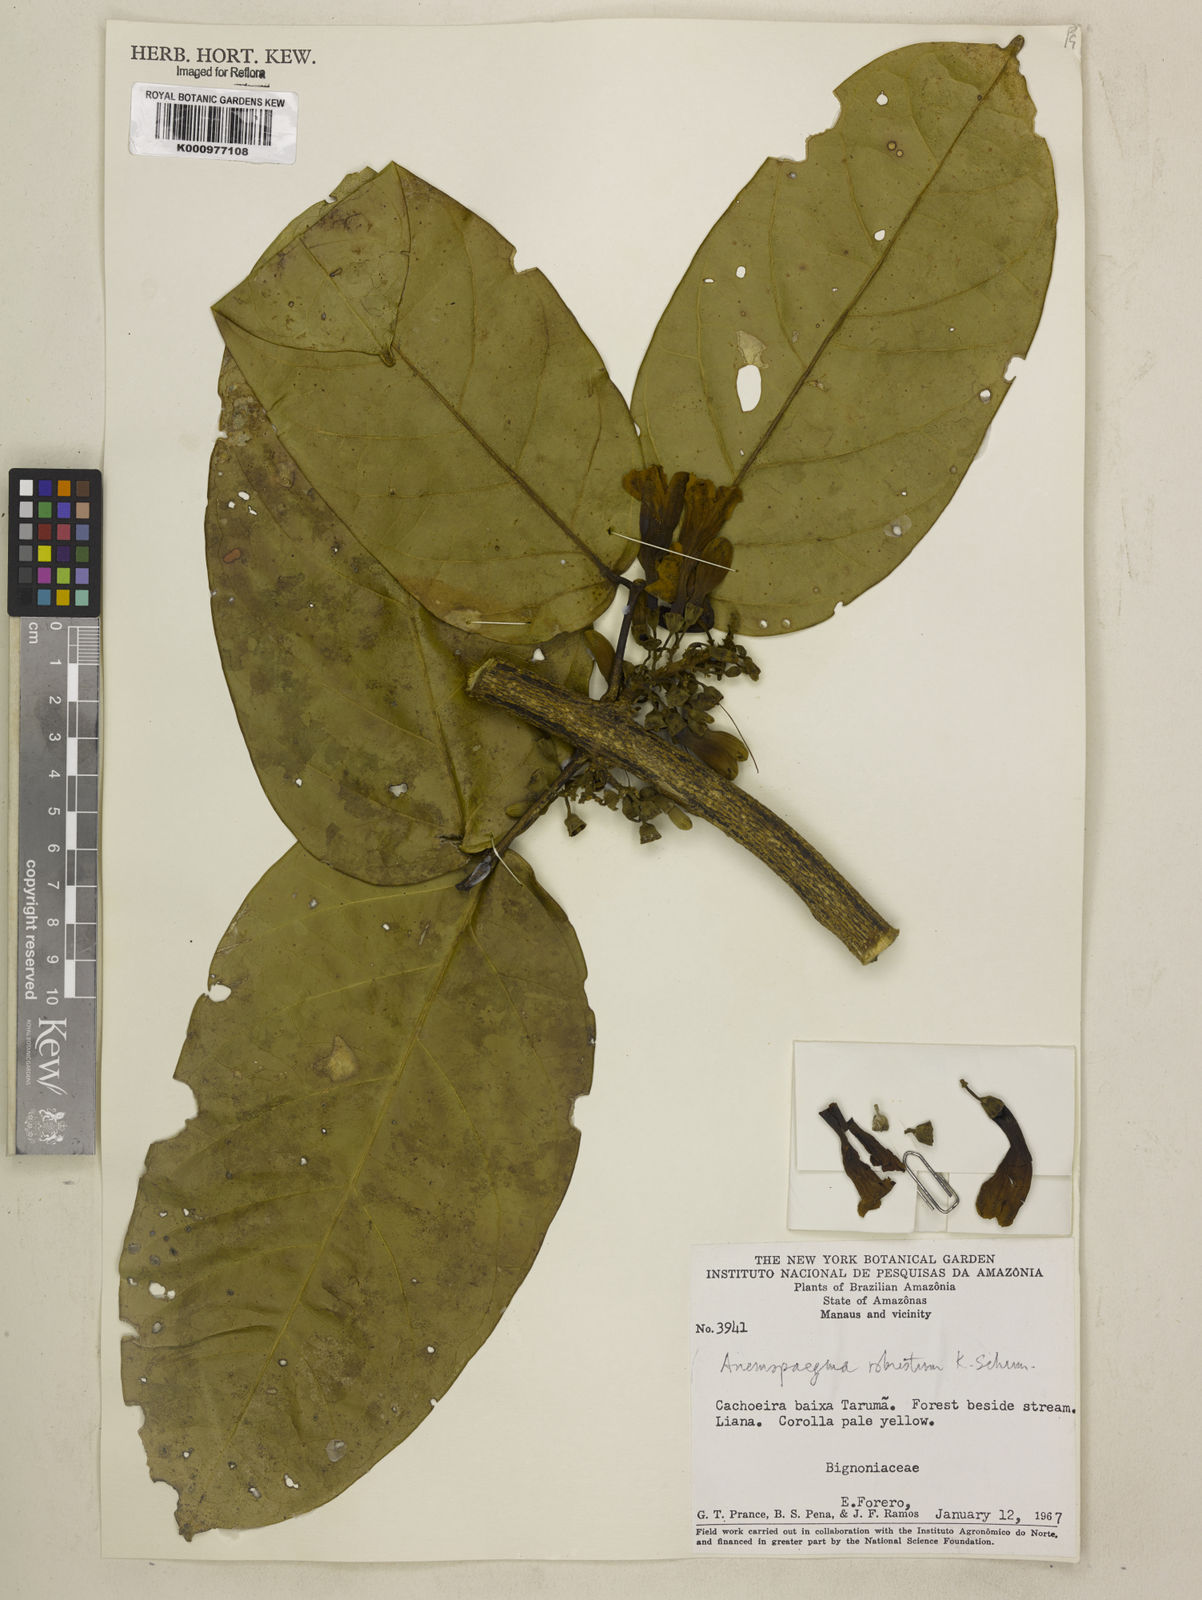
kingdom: Plantae
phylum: Tracheophyta
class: Magnoliopsida
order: Lamiales
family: Bignoniaceae
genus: Anemopaegma
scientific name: Anemopaegma robustum
